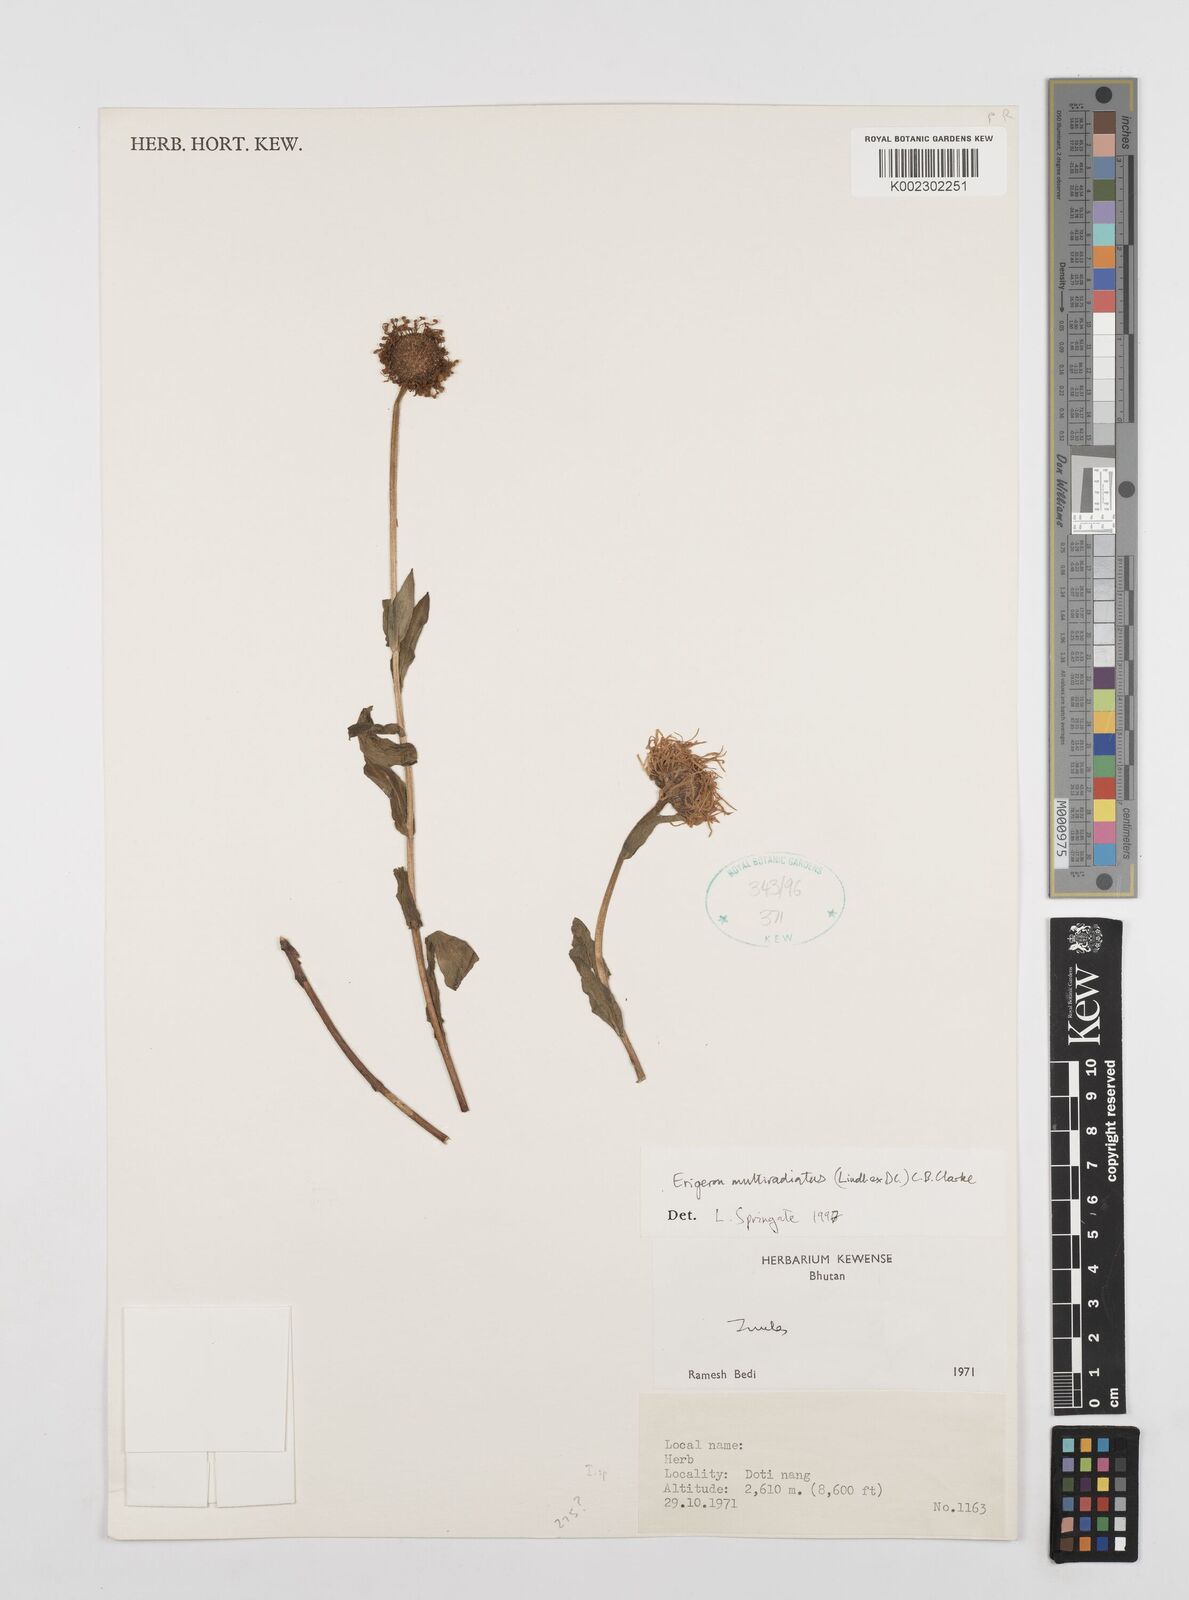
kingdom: Plantae
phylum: Tracheophyta
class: Magnoliopsida
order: Asterales
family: Asteraceae
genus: Erigeron
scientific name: Erigeron multiradiatus
